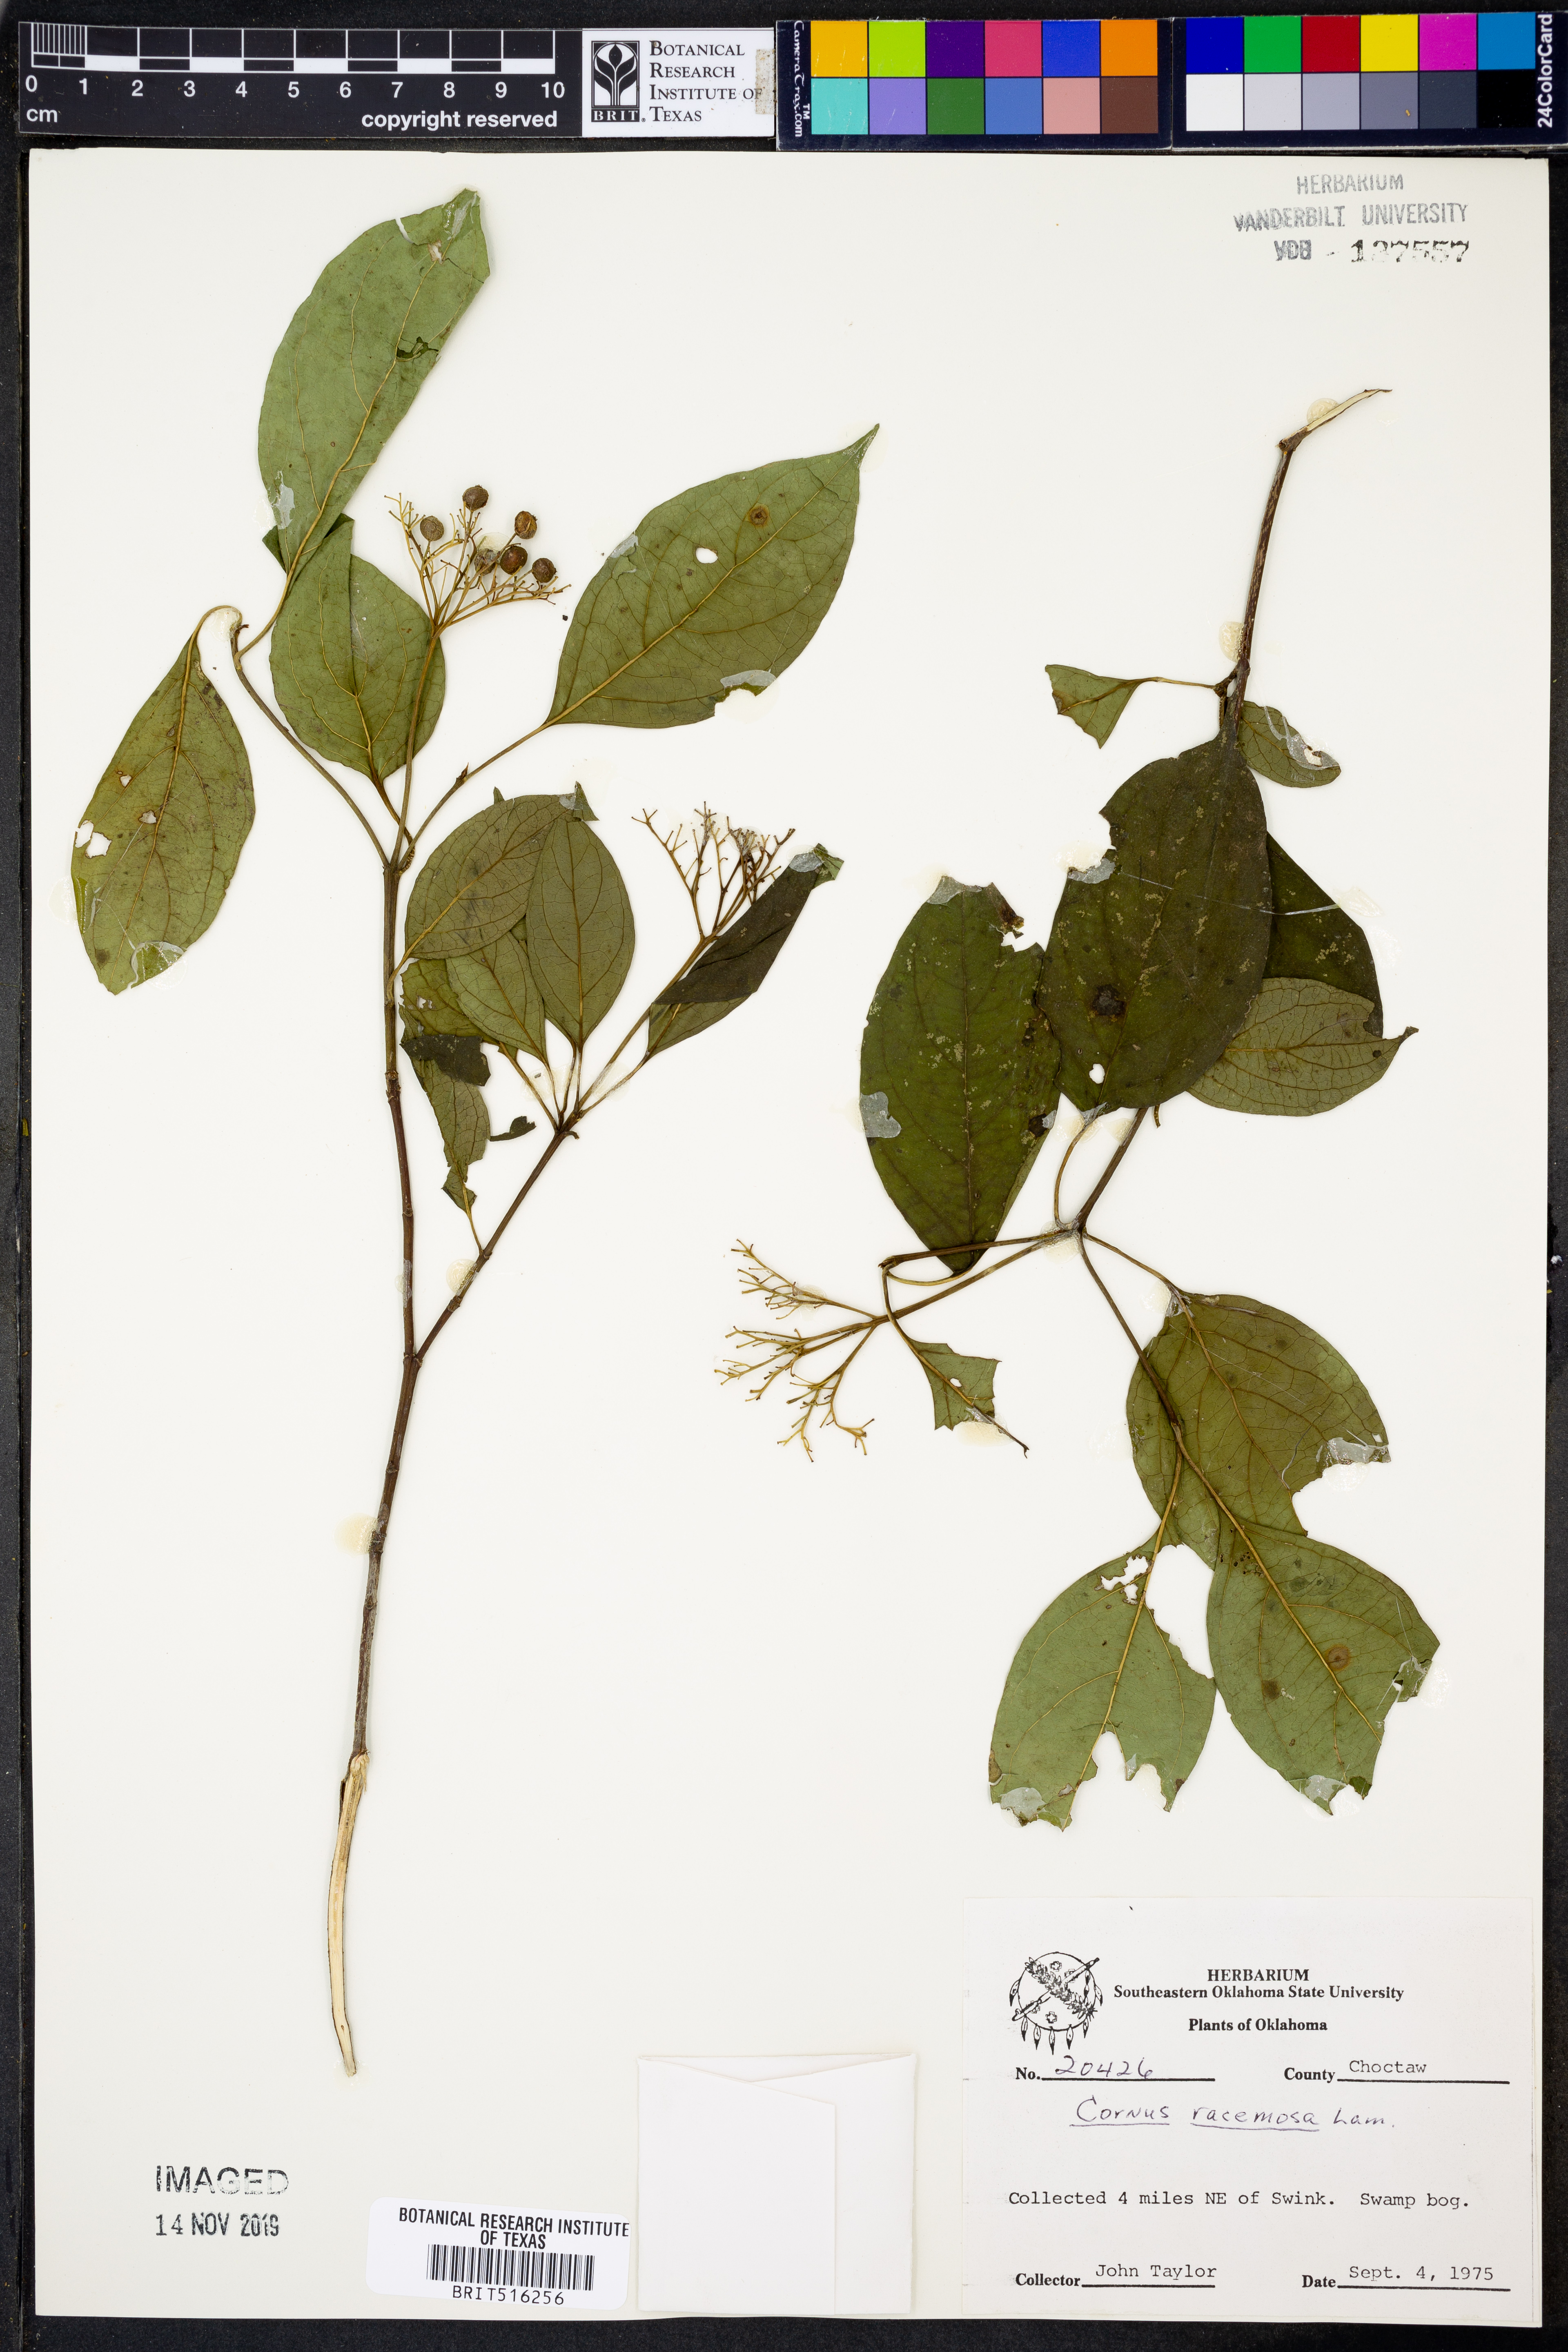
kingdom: Plantae
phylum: Tracheophyta
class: Magnoliopsida
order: Cornales
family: Cornaceae
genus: Cornus
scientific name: Cornus racemosa
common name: Panicled dogwood
